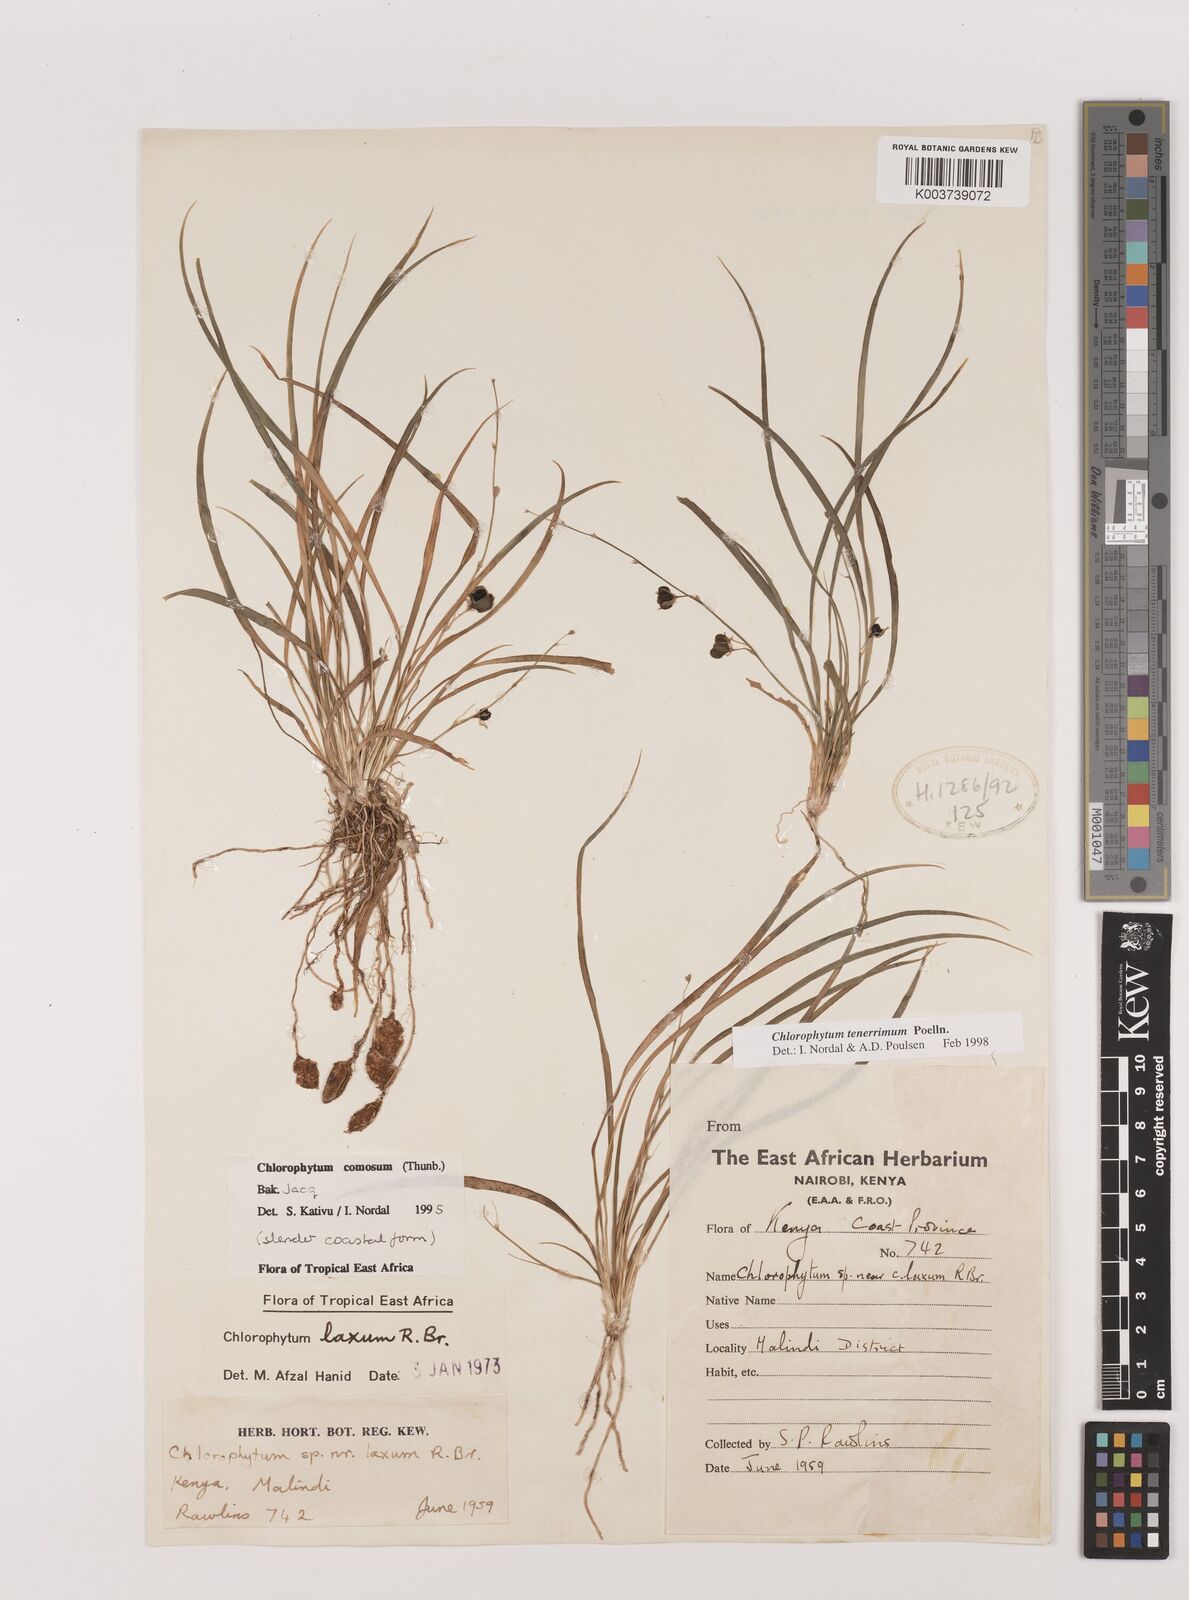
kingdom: Plantae
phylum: Tracheophyta
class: Liliopsida
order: Asparagales
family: Asparagaceae
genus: Chlorophytum
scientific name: Chlorophytum tenerrimum
